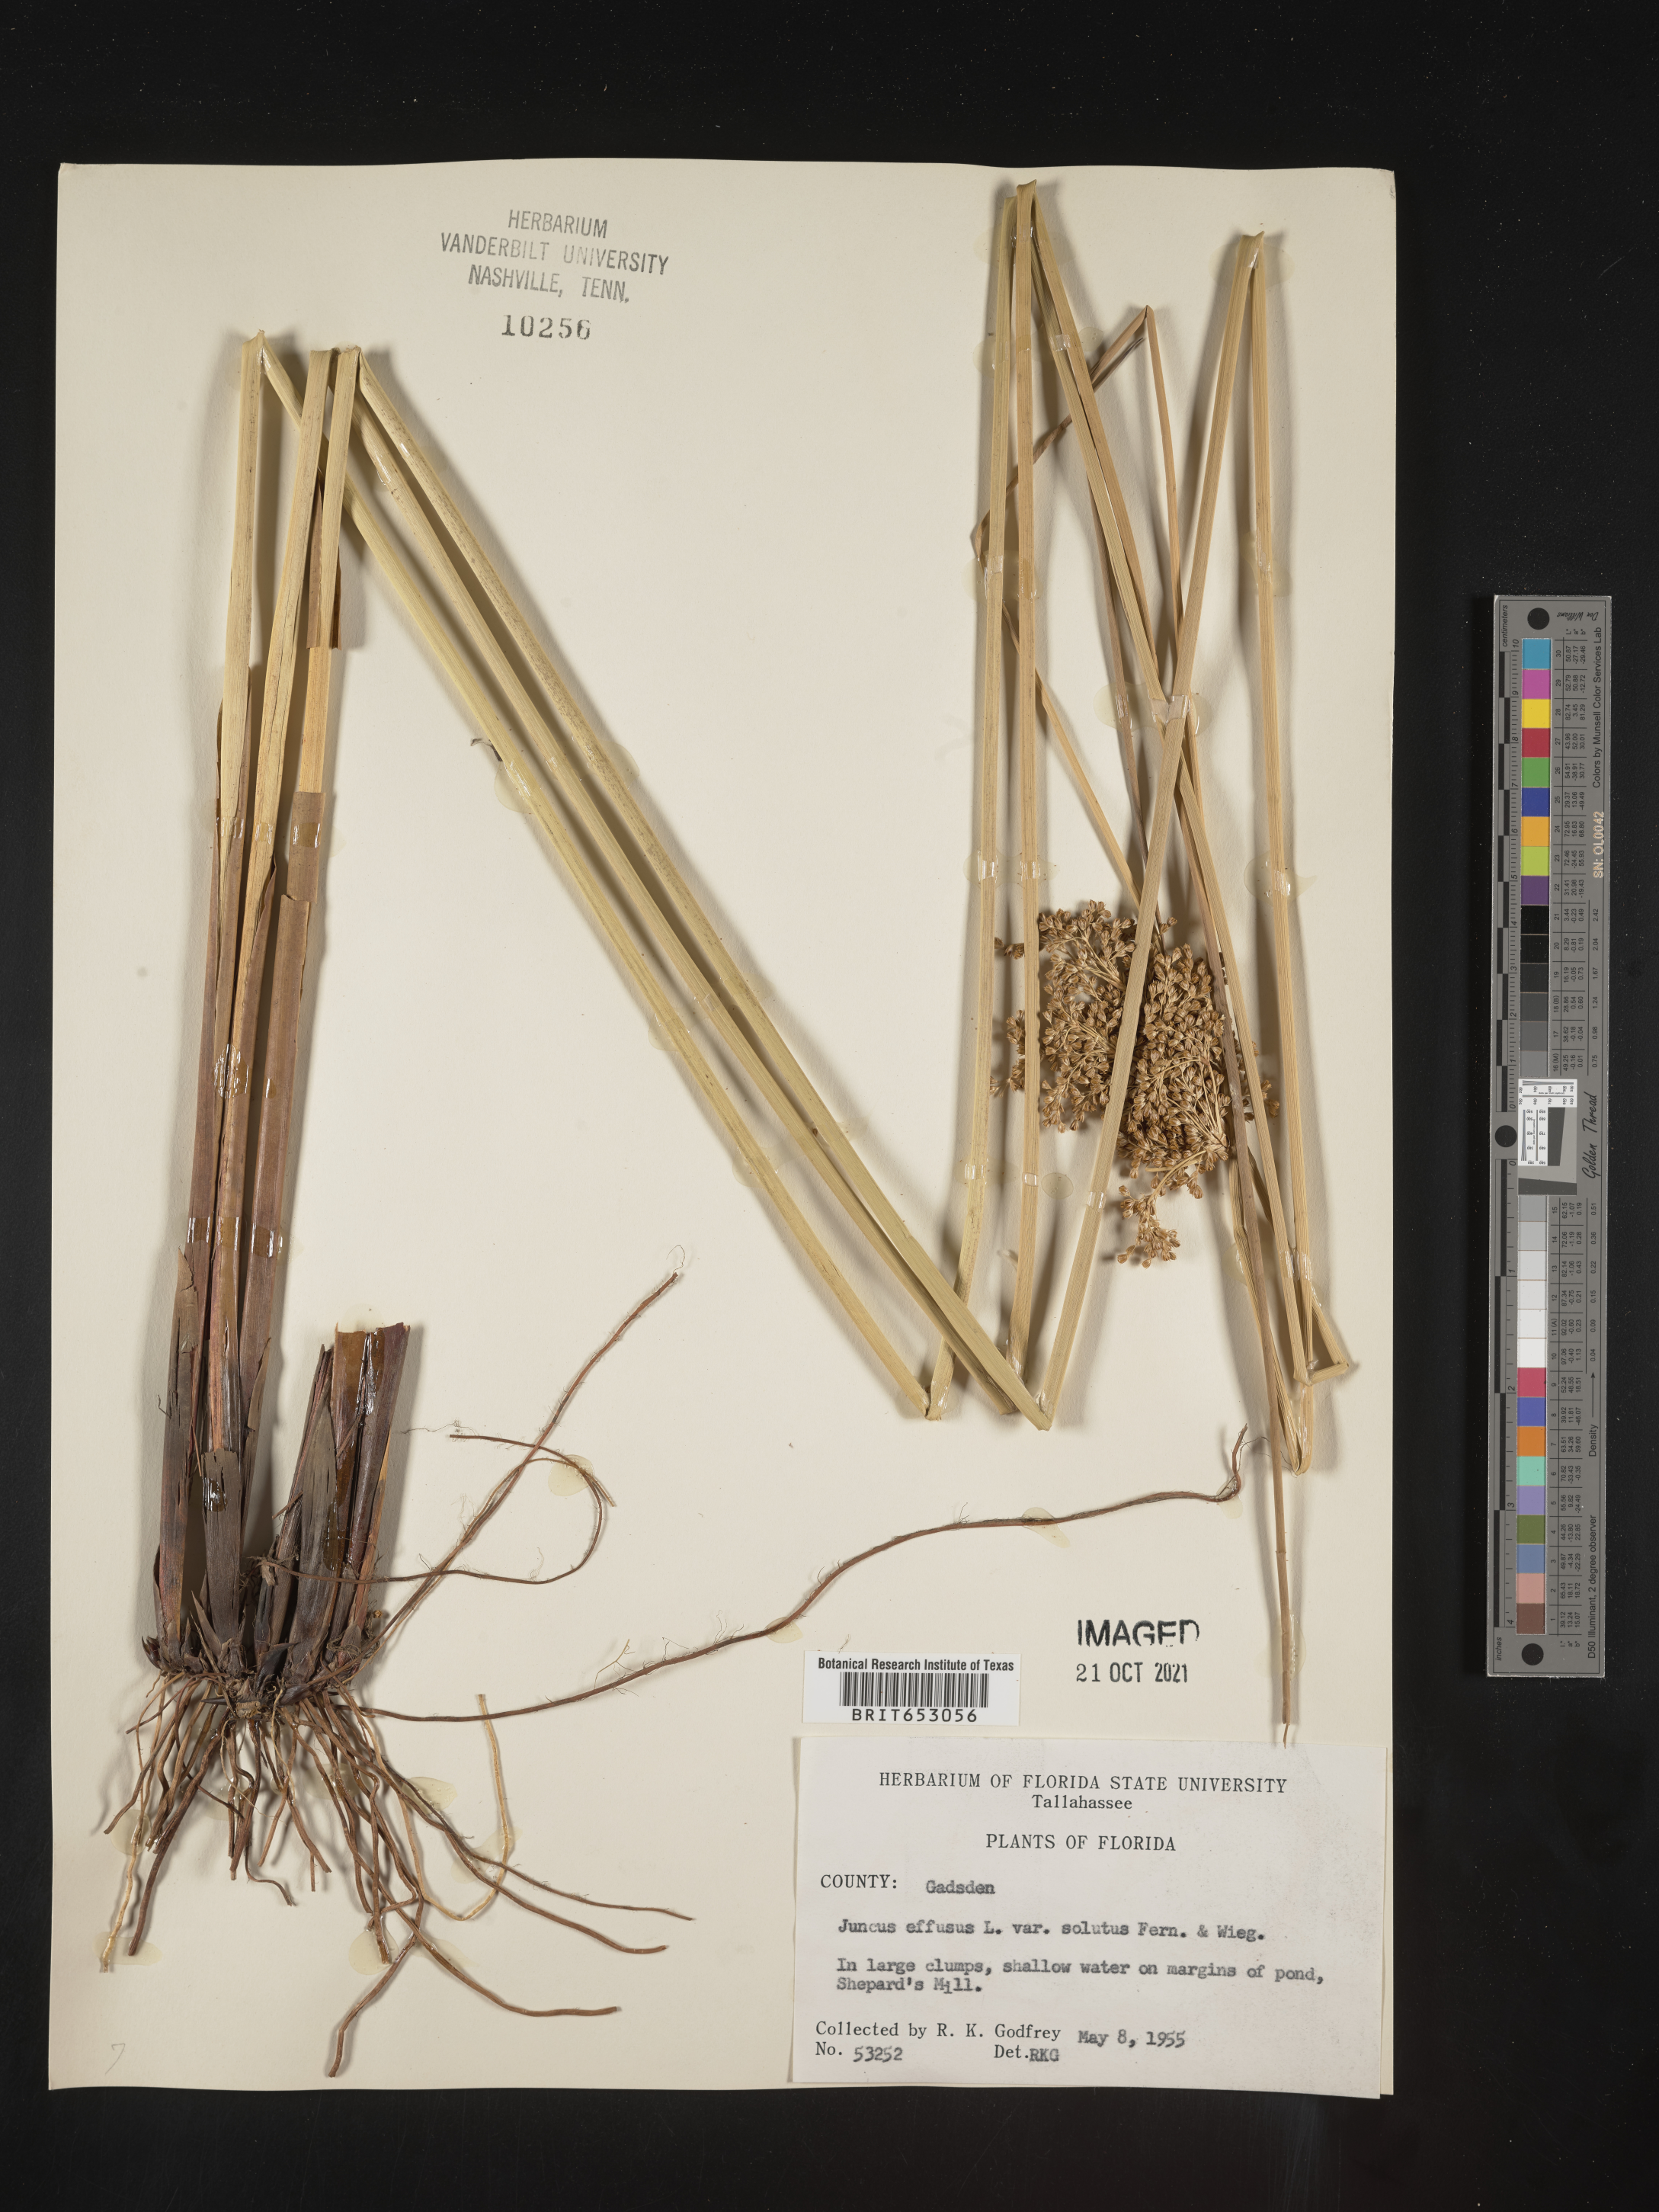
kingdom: Plantae
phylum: Tracheophyta
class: Liliopsida
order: Poales
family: Juncaceae
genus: Juncus
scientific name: Juncus effusus
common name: Soft rush
